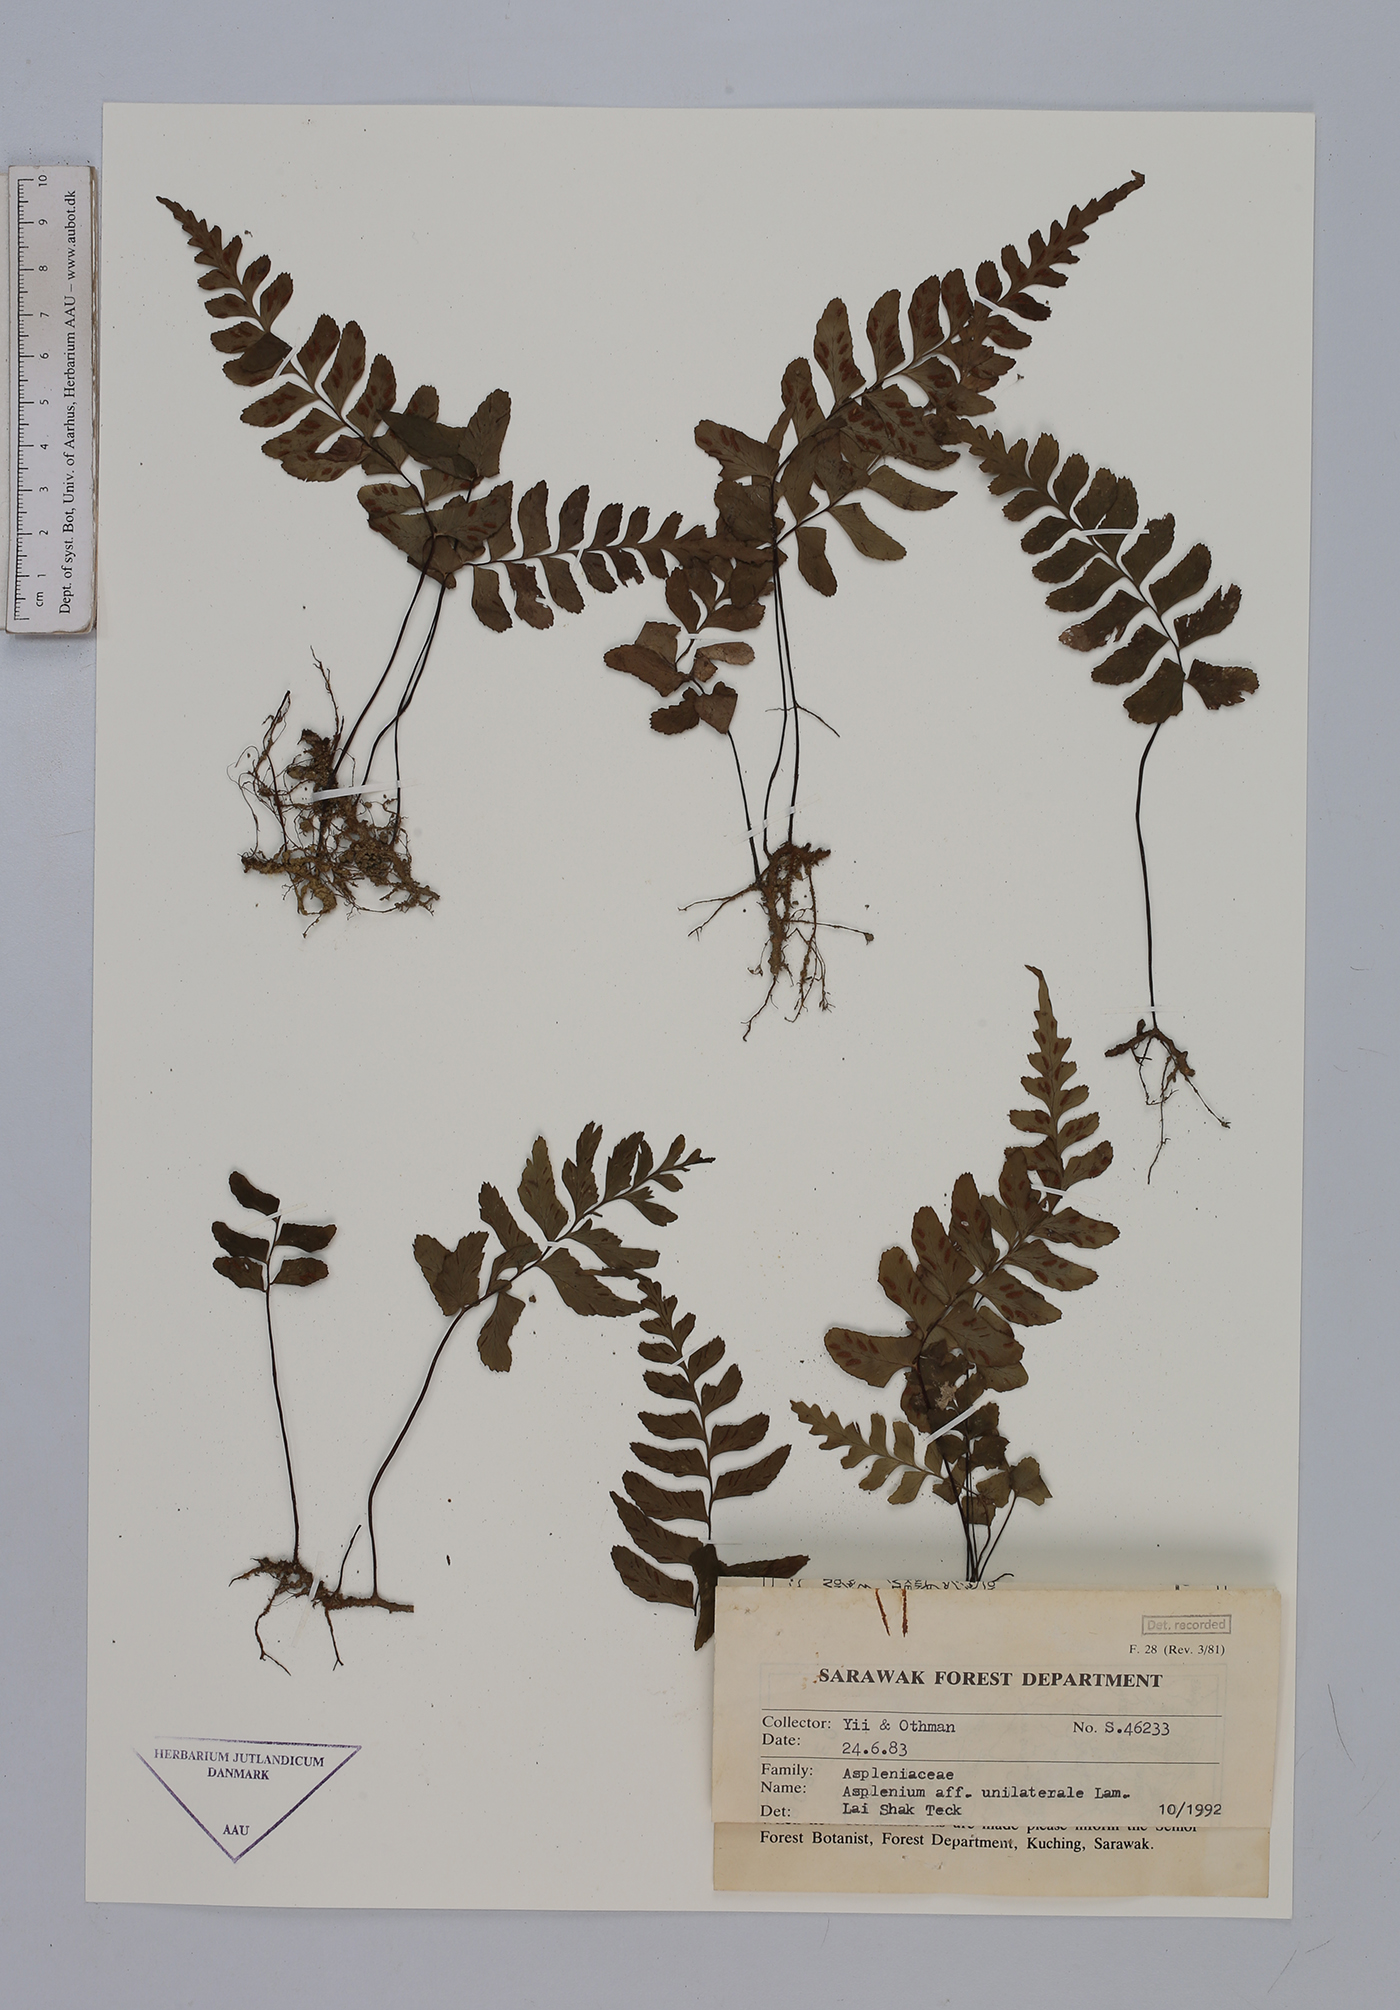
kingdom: Plantae
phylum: Tracheophyta
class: Polypodiopsida
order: Polypodiales
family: Aspleniaceae
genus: Hymenasplenium
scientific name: Hymenasplenium unilaterale
